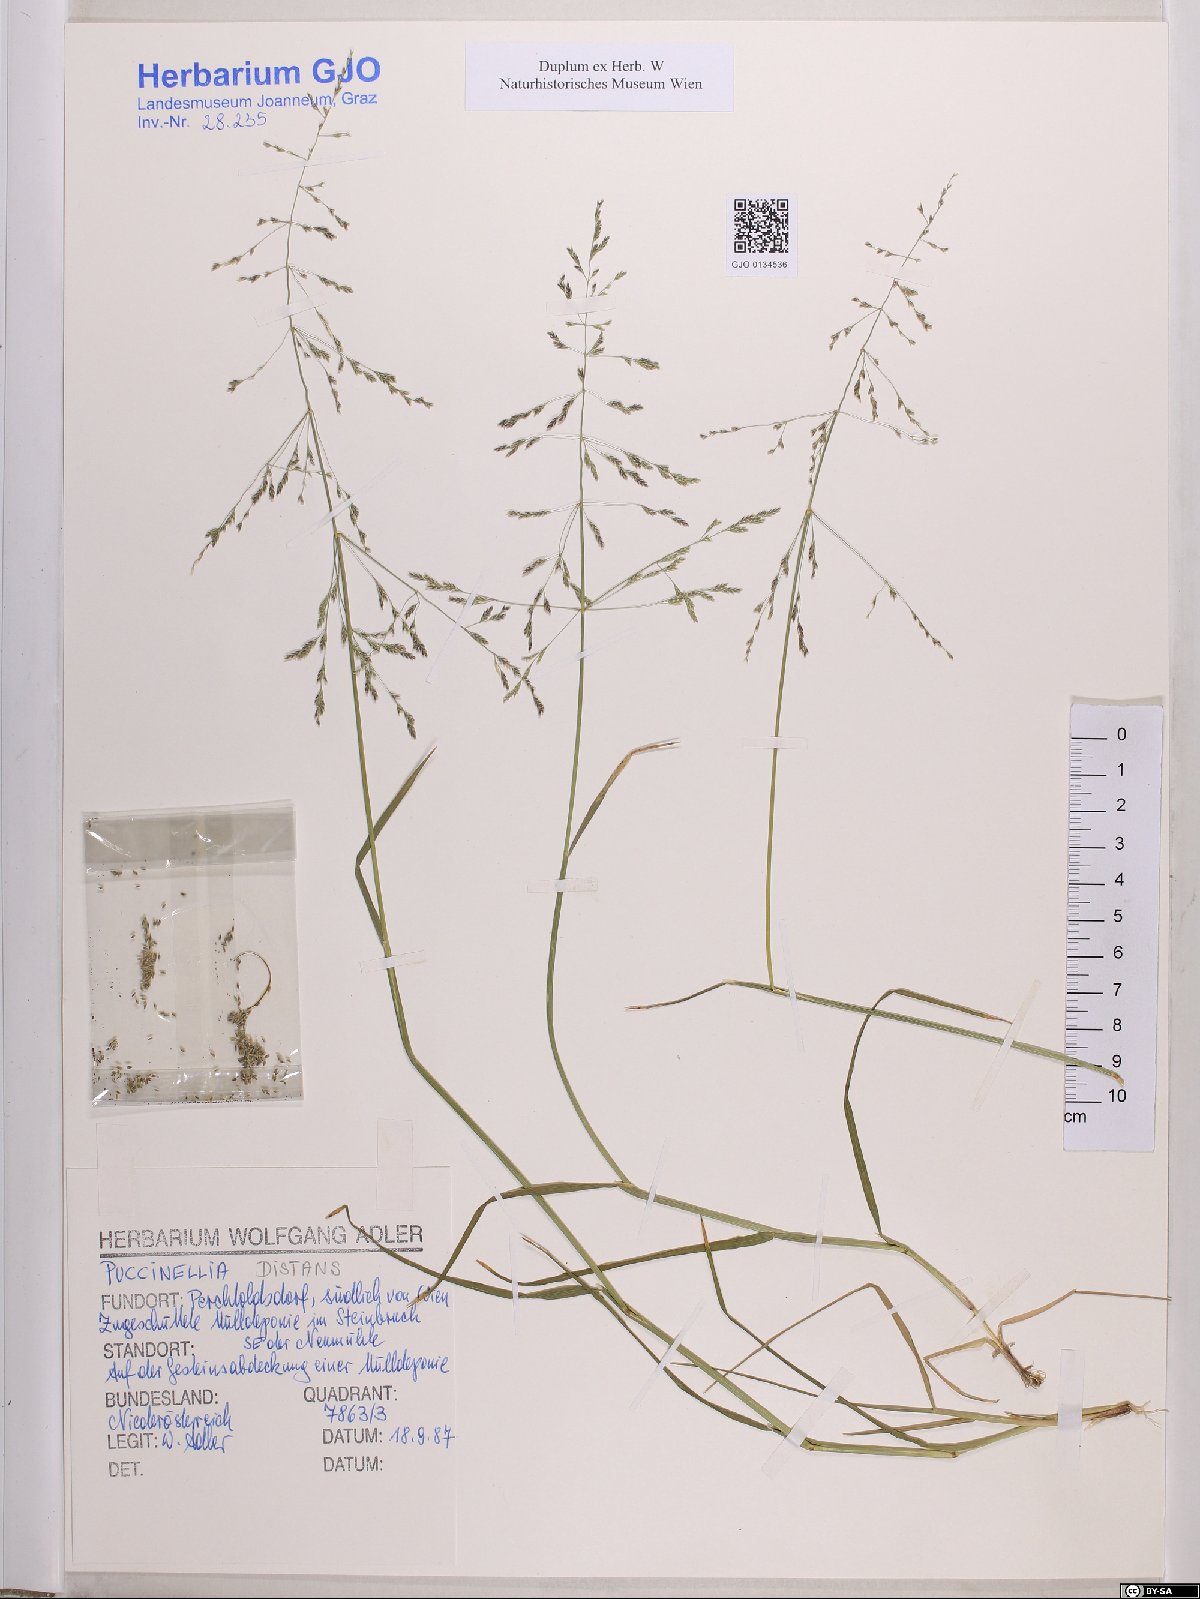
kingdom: Plantae
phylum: Tracheophyta
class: Liliopsida
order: Poales
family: Poaceae
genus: Puccinellia
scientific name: Puccinellia distans
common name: Weeping alkaligrass
